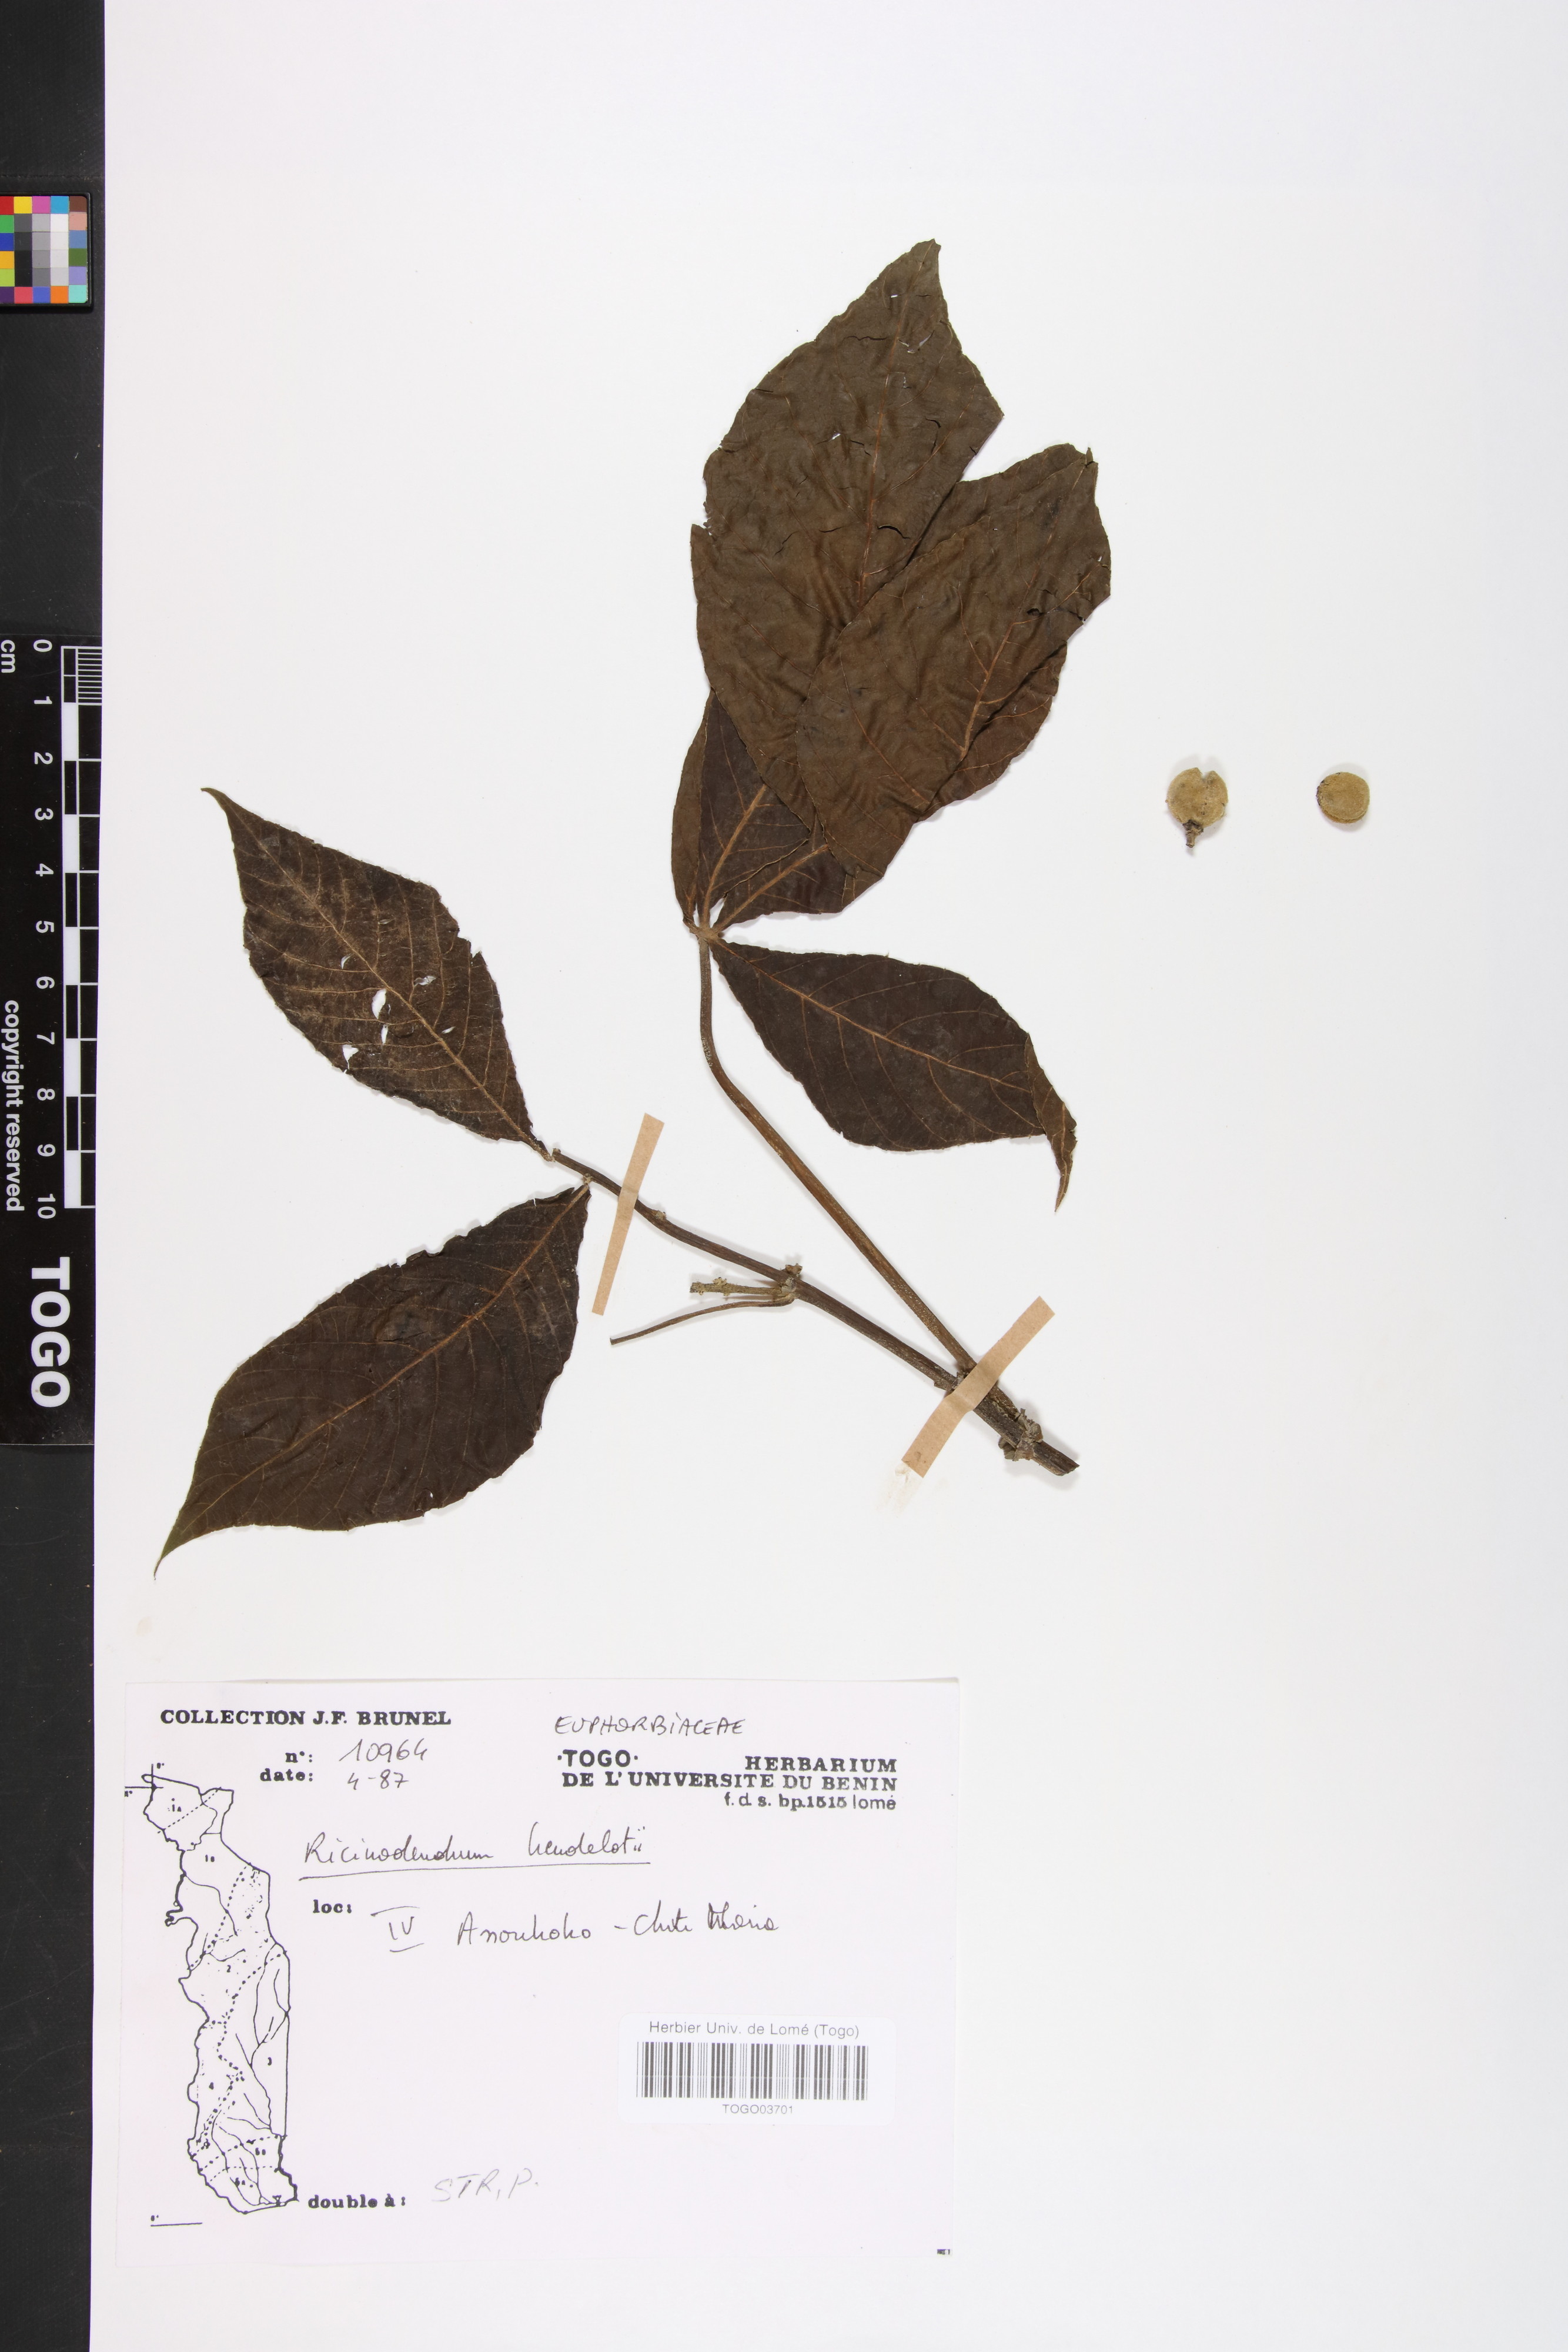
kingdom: Plantae
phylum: Tracheophyta
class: Magnoliopsida
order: Malpighiales
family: Euphorbiaceae
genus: Ricinodendron
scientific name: Ricinodendron heudelotii
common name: African nut-tree
